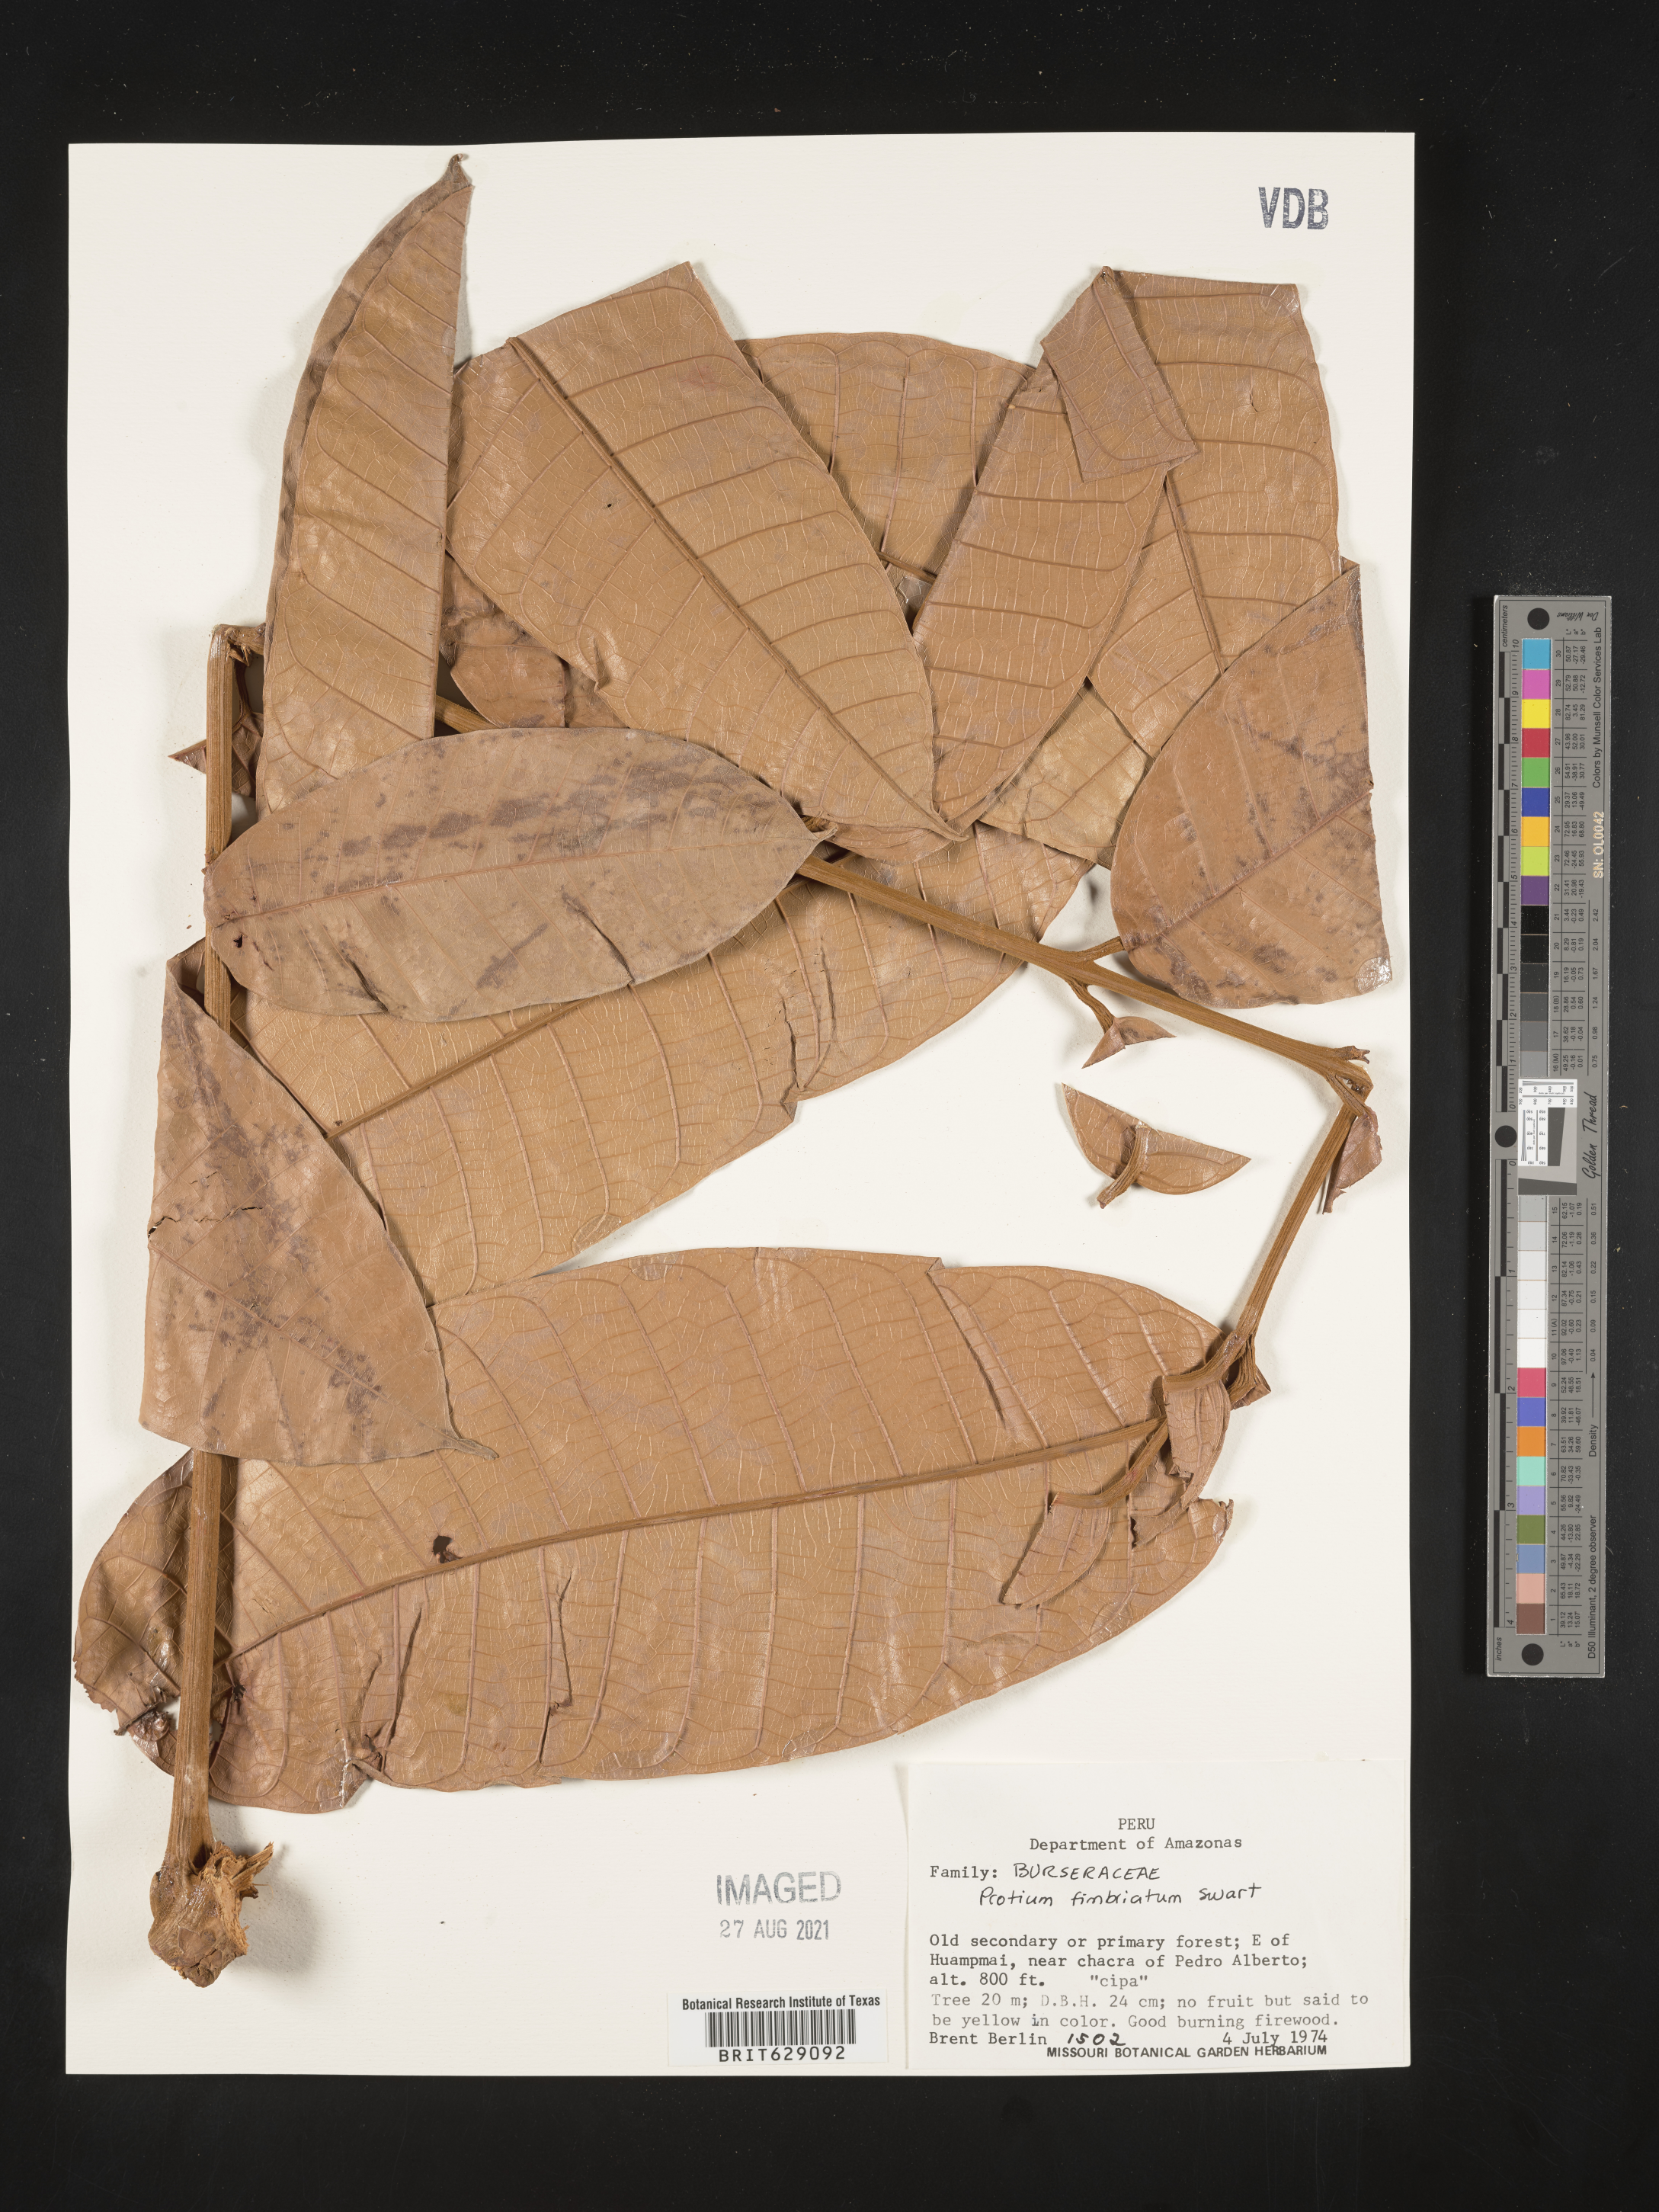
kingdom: Plantae
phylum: Tracheophyta
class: Magnoliopsida
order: Sapindales
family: Burseraceae
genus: Protium
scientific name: Protium amazonicum
